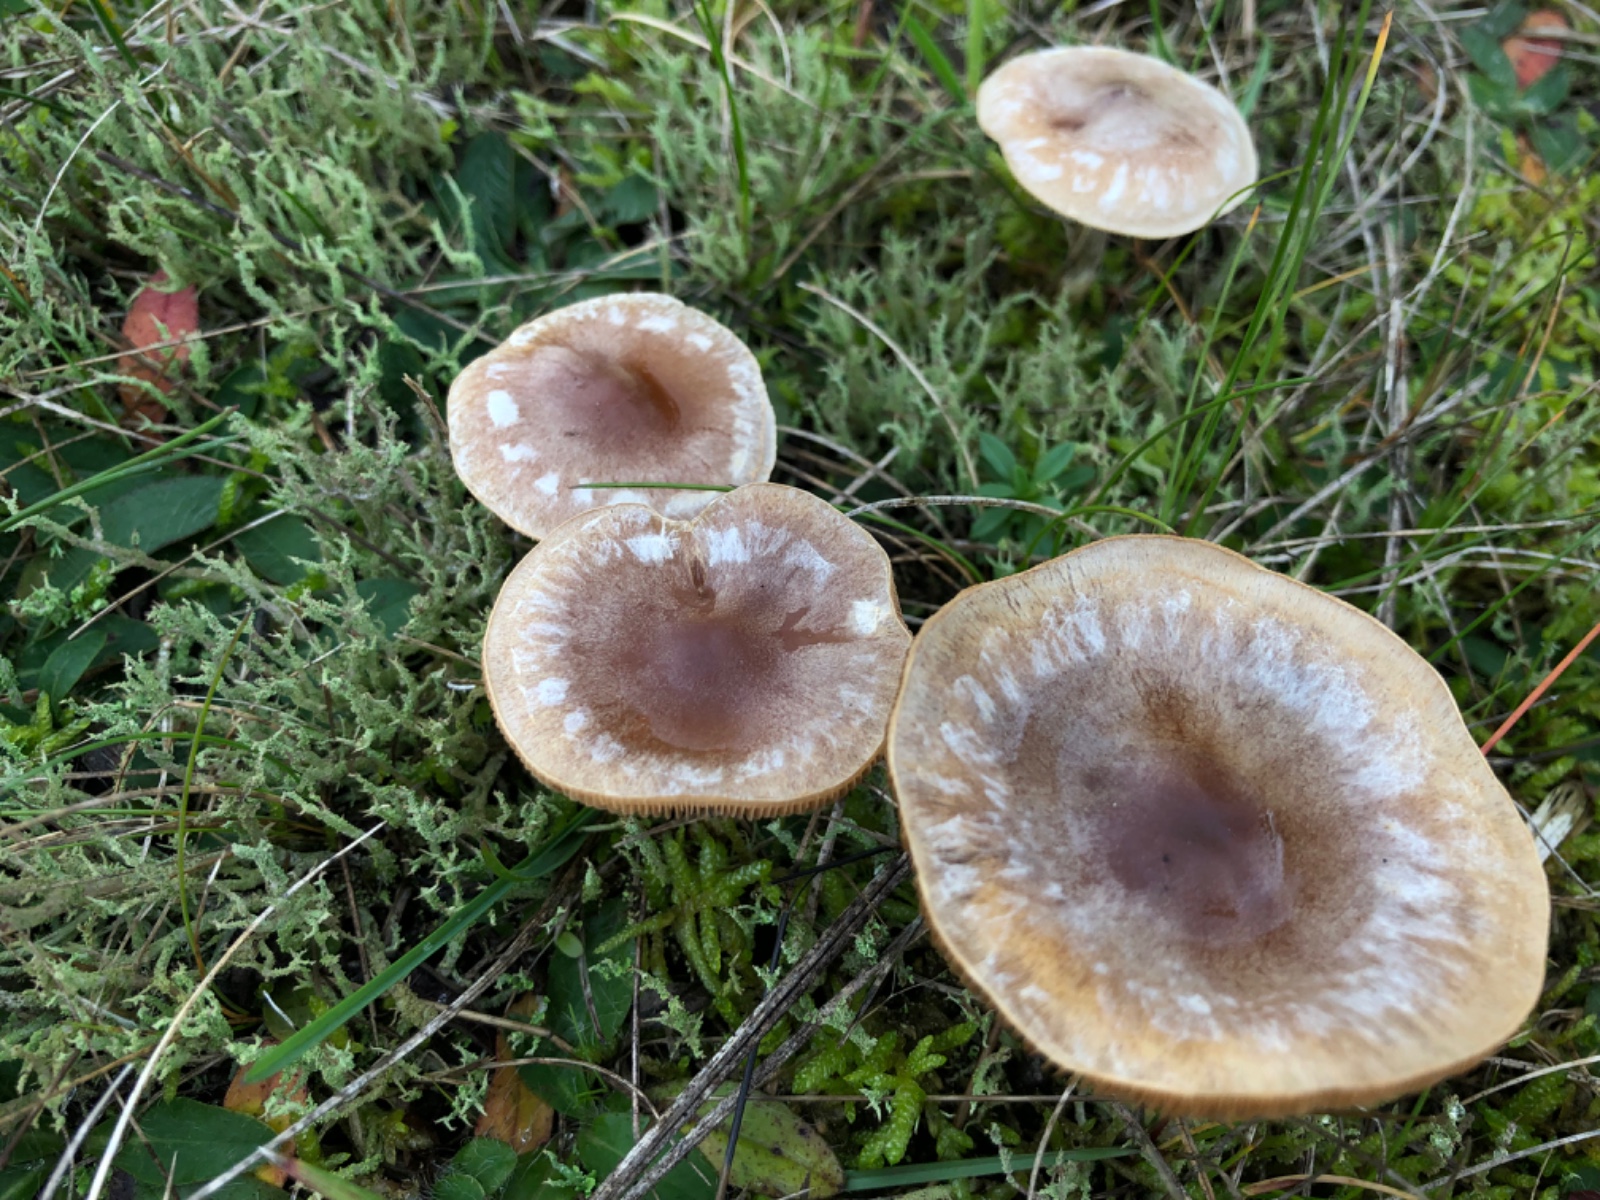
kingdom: Fungi
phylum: Basidiomycota
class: Agaricomycetes
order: Agaricales
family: Hymenogastraceae
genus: Hebeloma
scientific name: Hebeloma
